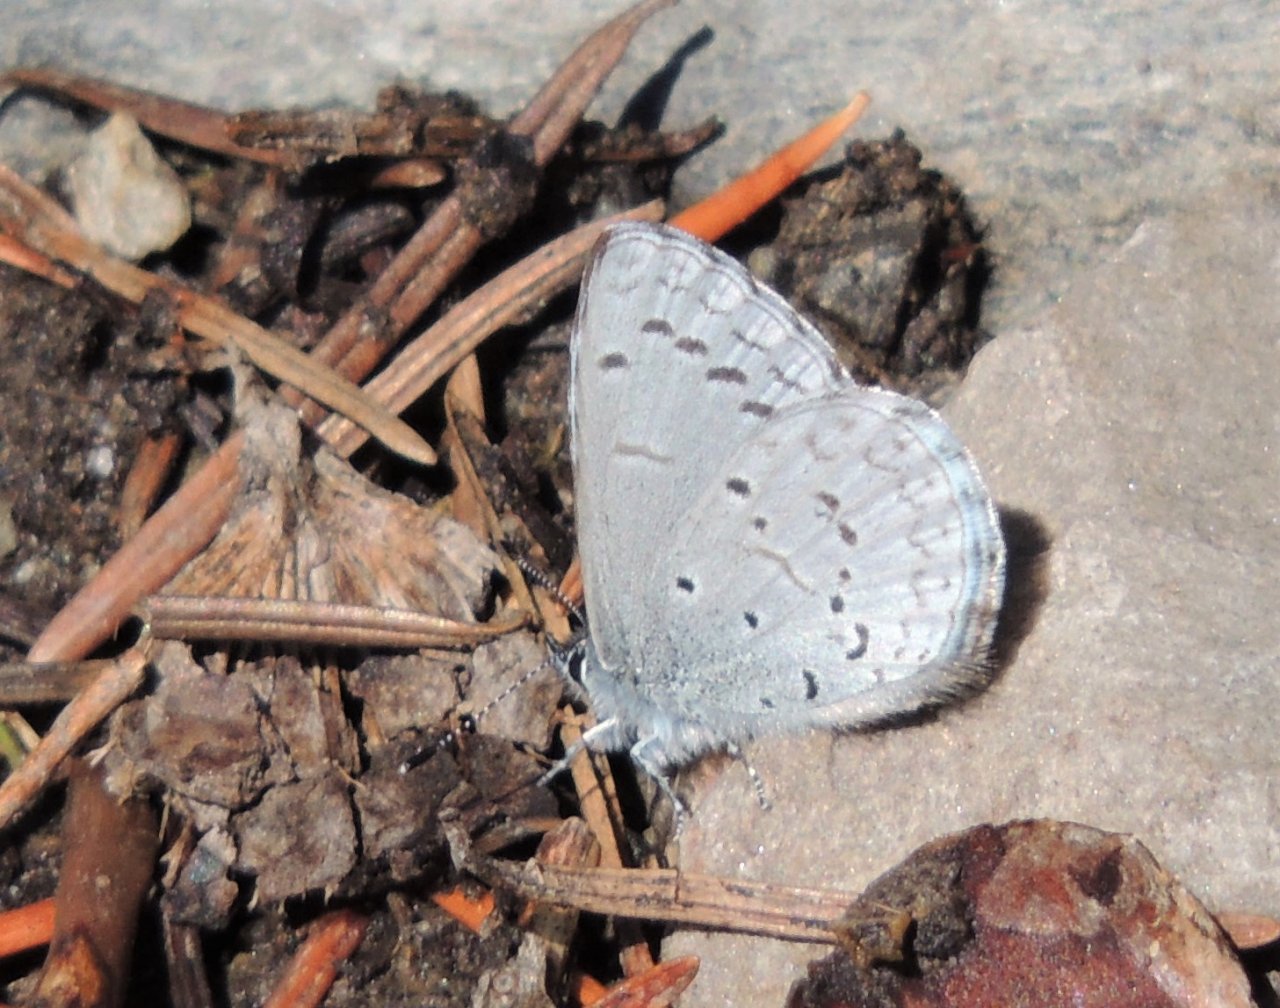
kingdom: Animalia
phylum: Arthropoda
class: Insecta
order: Lepidoptera
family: Lycaenidae
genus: Celastrina
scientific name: Celastrina ladon
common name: Echo Azure
